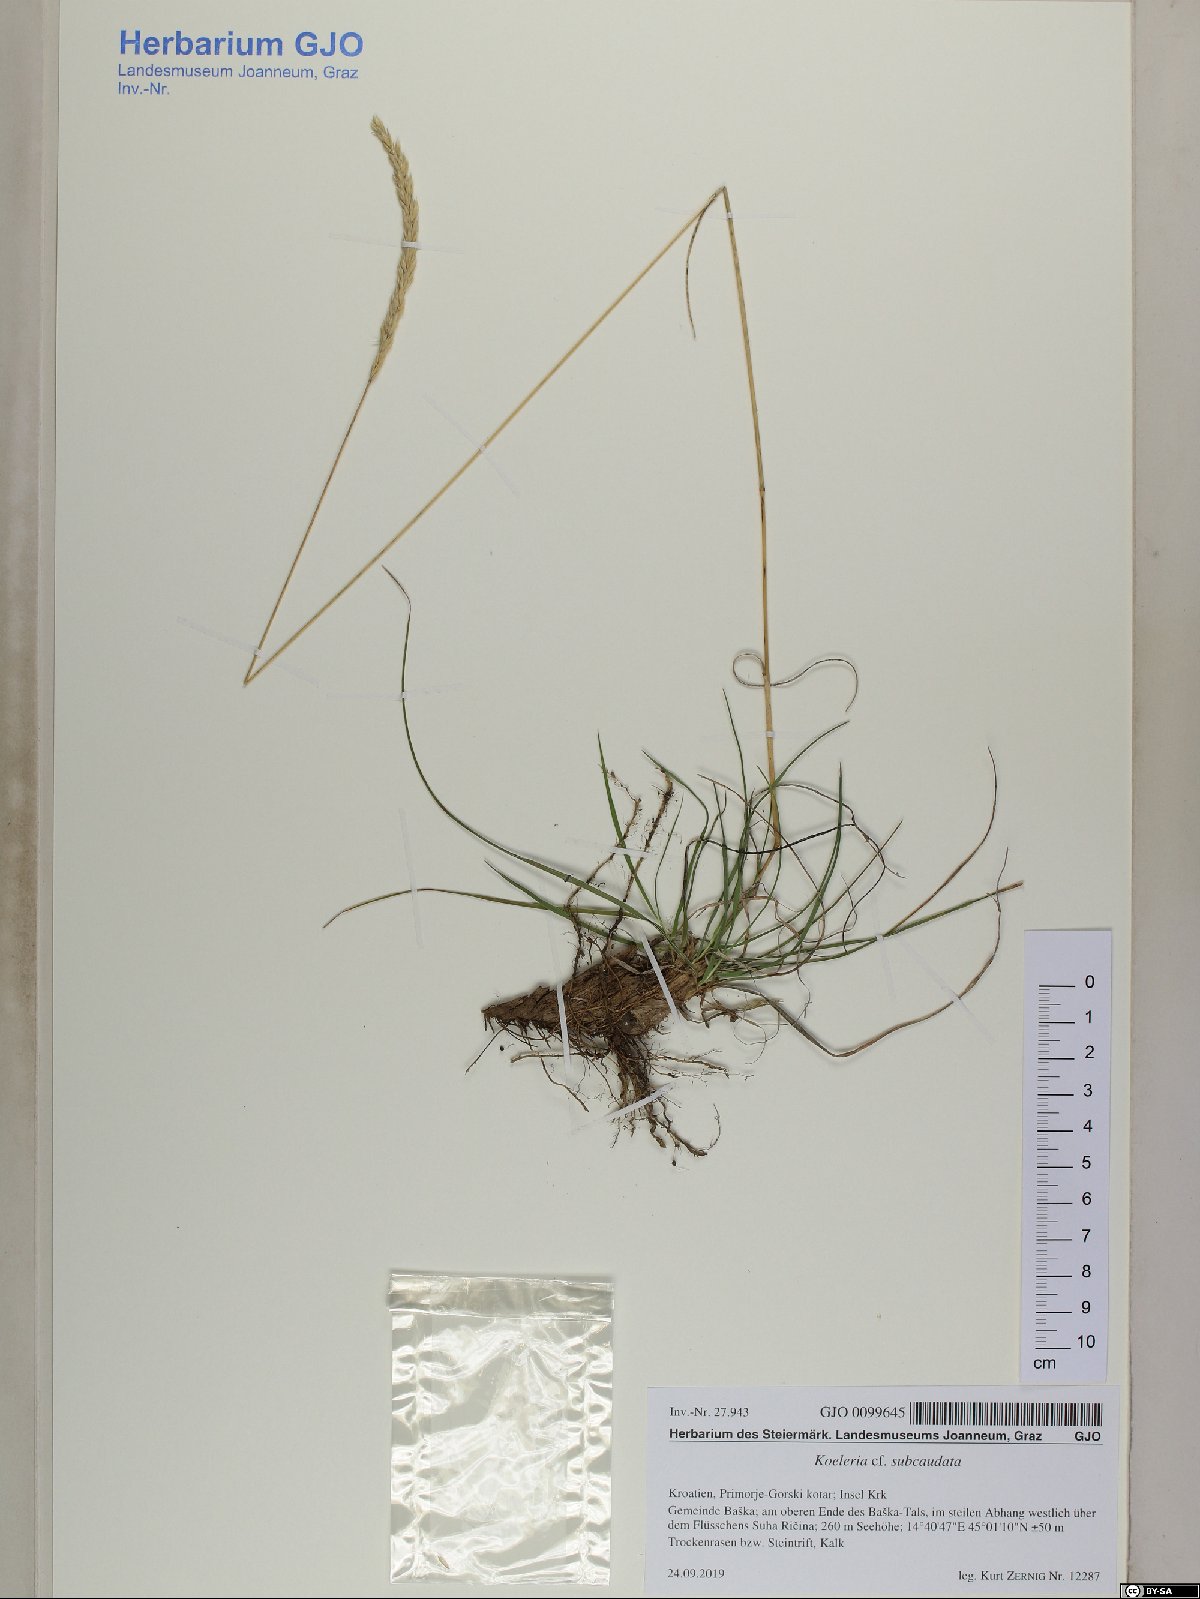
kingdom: Plantae
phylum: Tracheophyta
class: Liliopsida
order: Poales
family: Poaceae
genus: Koeleria
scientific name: Koeleria splendens
